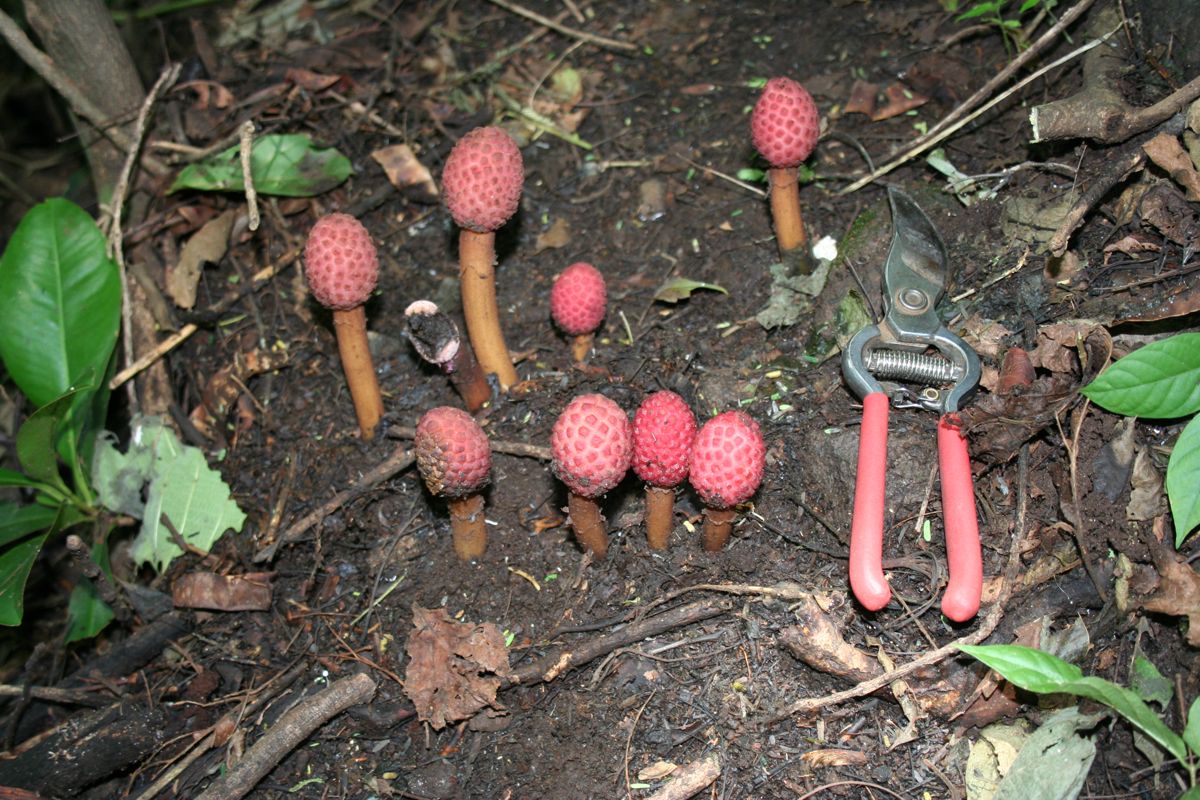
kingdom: Plantae
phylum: Tracheophyta
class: Magnoliopsida
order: Santalales
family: Balanophoraceae
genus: Helosis
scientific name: Helosis cayennensis
